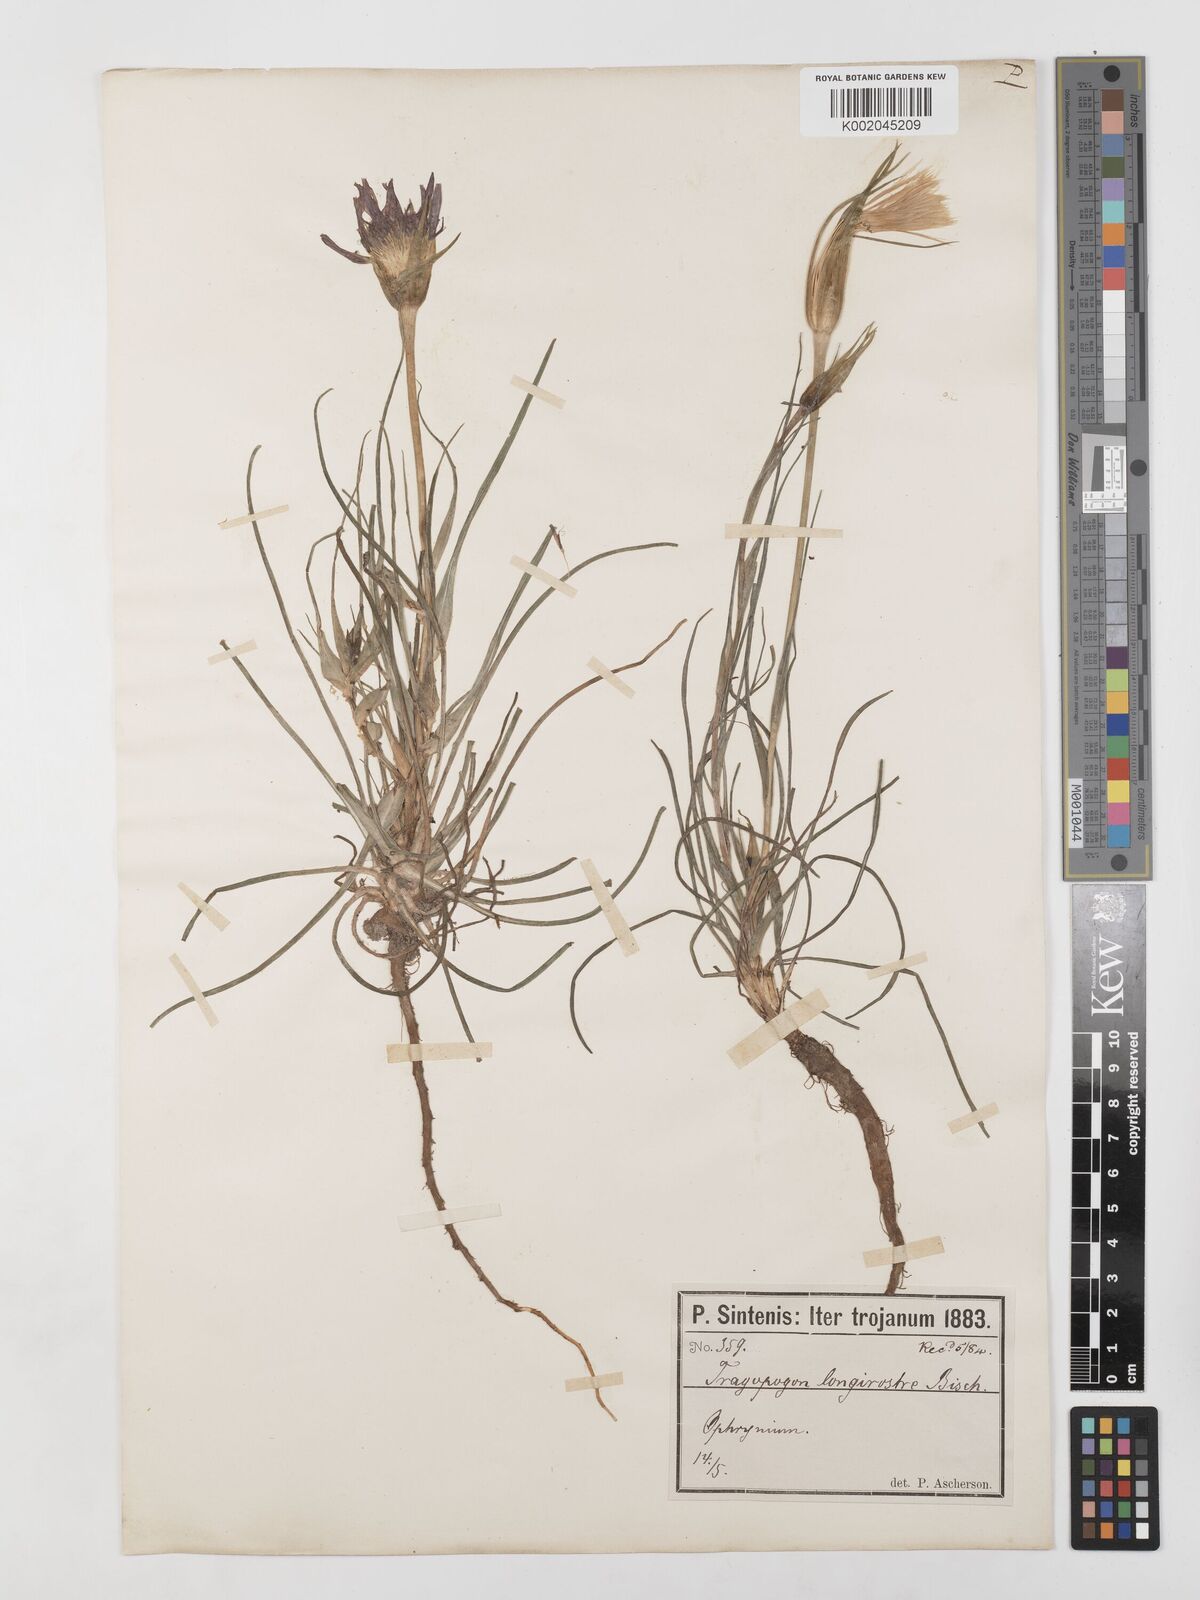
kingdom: Plantae
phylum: Tracheophyta
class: Magnoliopsida
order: Asterales
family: Asteraceae
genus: Tragopogon
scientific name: Tragopogon coelesyriacus
